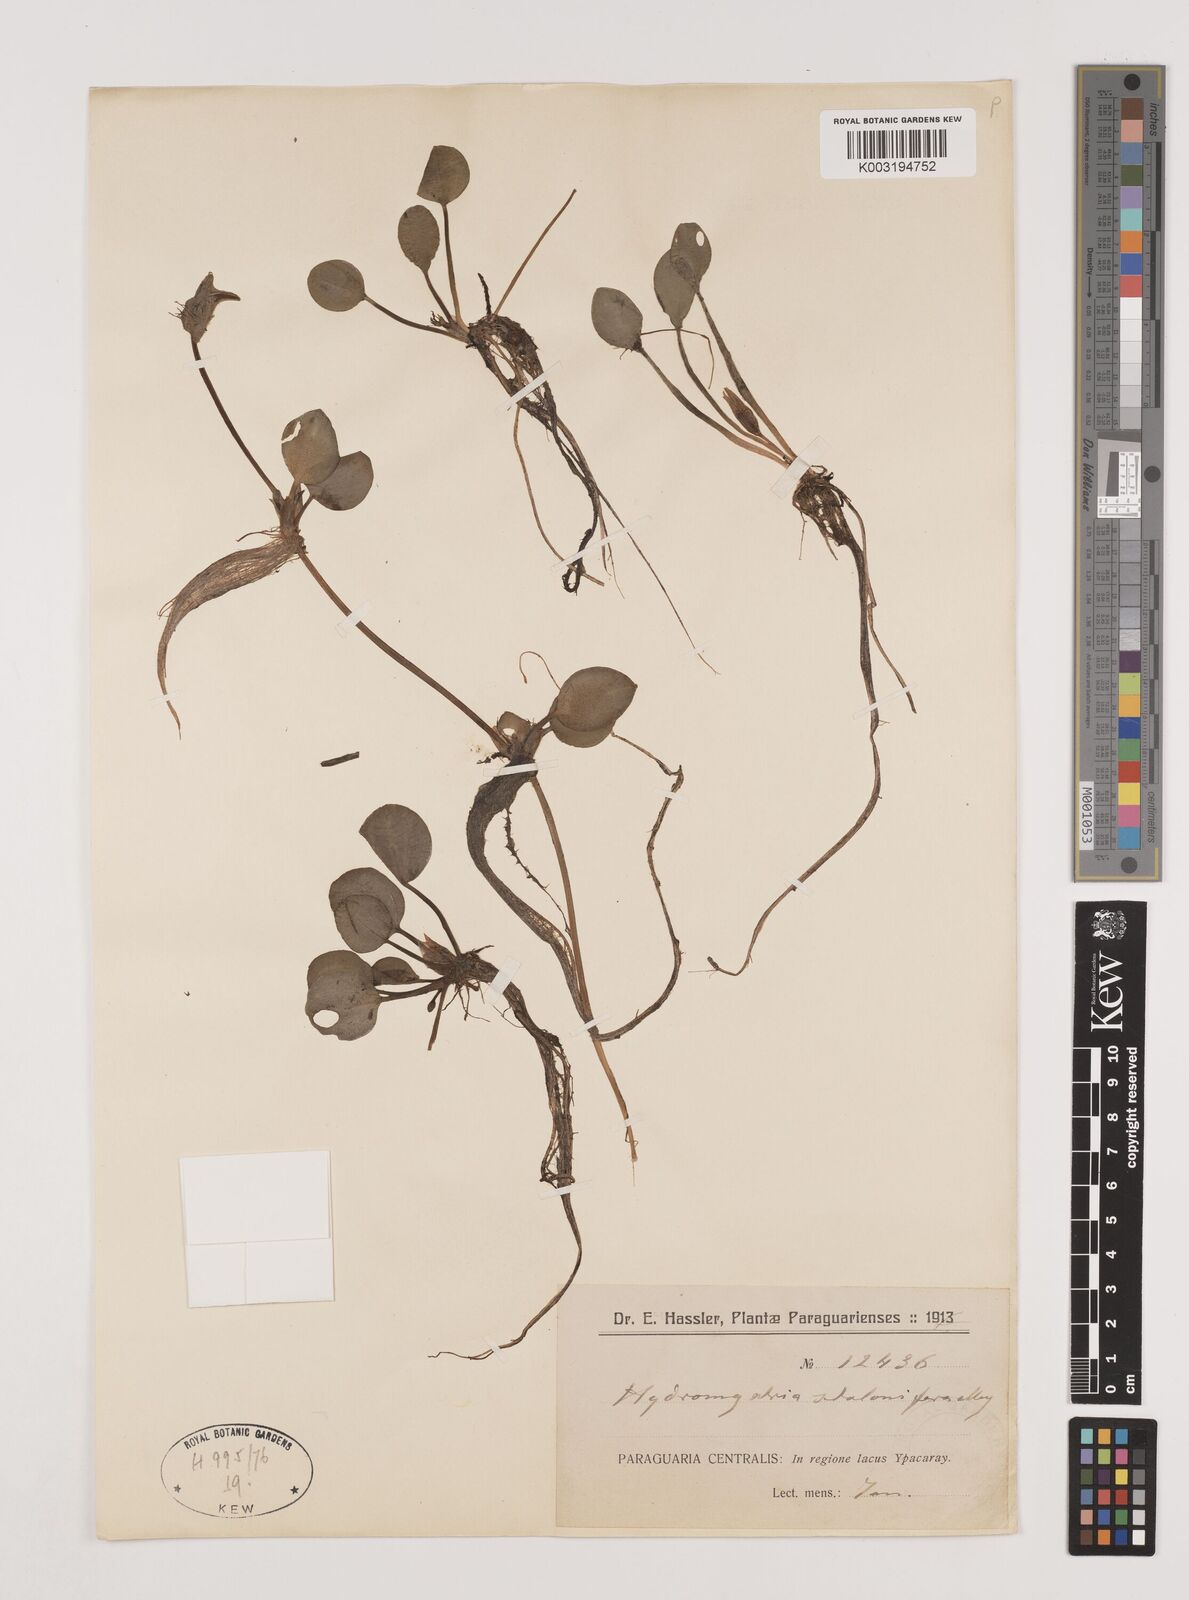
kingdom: Plantae
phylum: Tracheophyta
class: Liliopsida
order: Alismatales
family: Hydrocharitaceae
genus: Hydrocharis
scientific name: Hydrocharis laevigata
